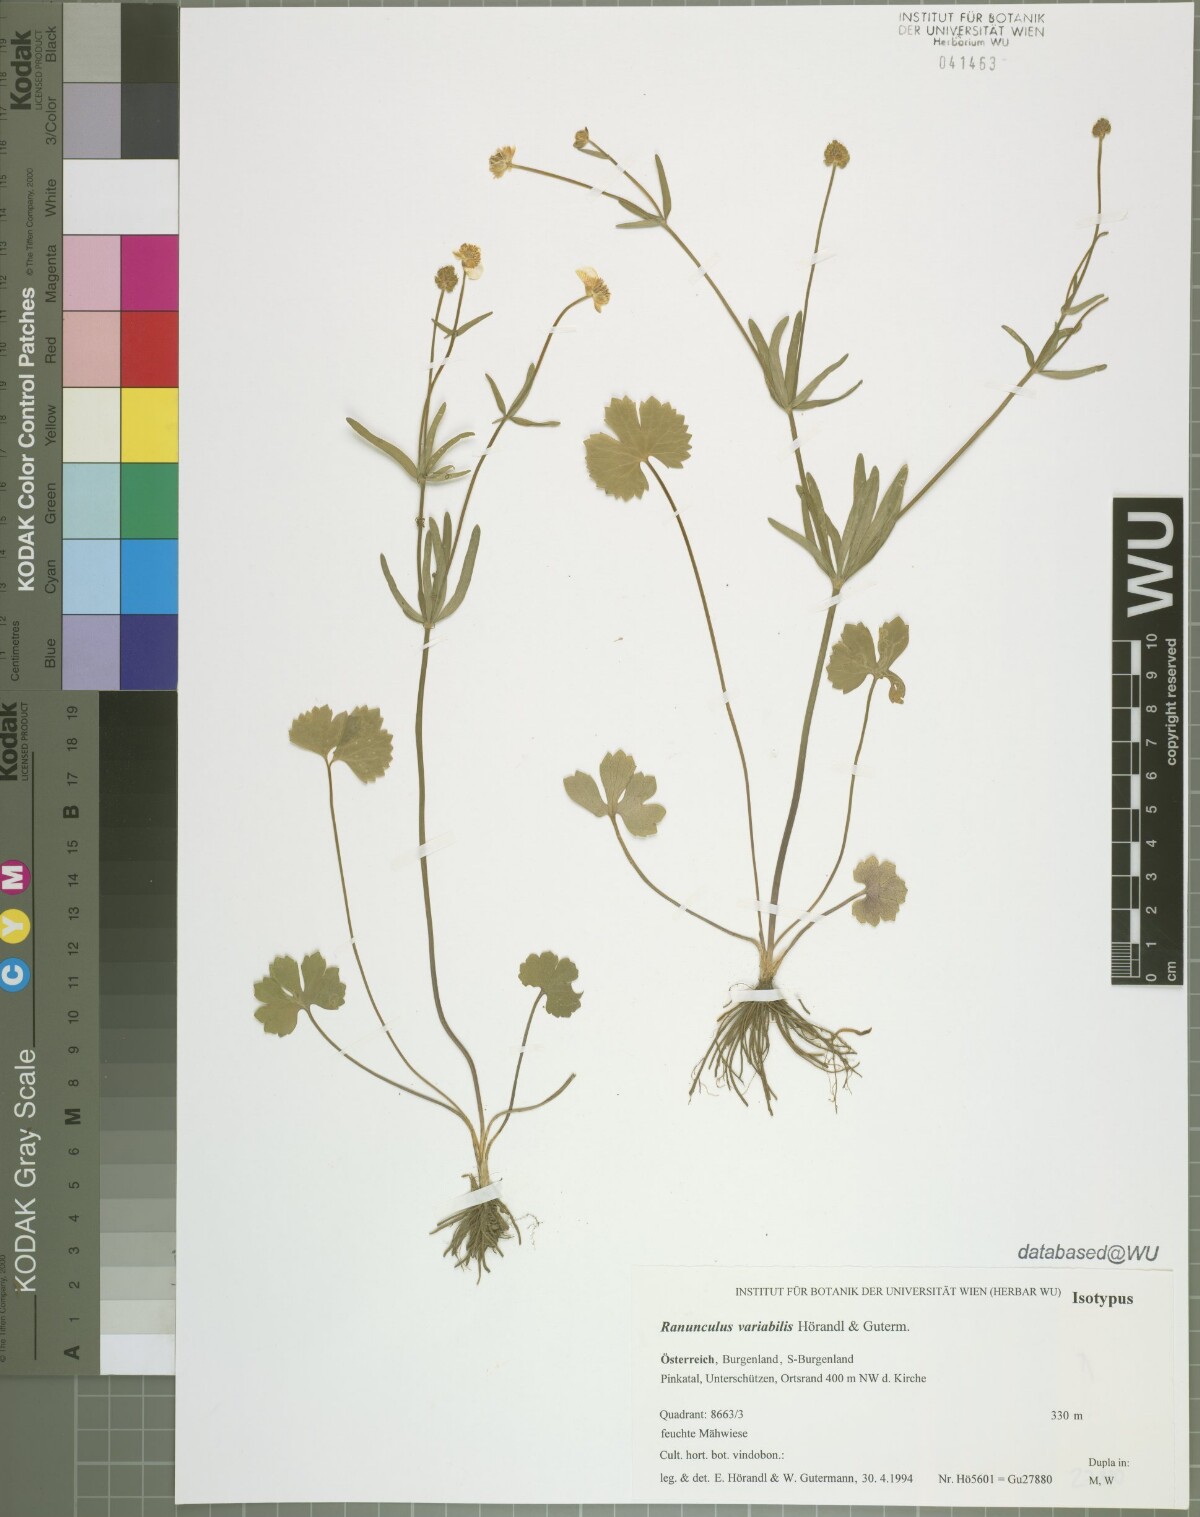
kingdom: Plantae
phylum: Tracheophyta
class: Magnoliopsida
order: Ranunculales
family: Ranunculaceae
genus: Ranunculus
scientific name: Ranunculus variabilis
